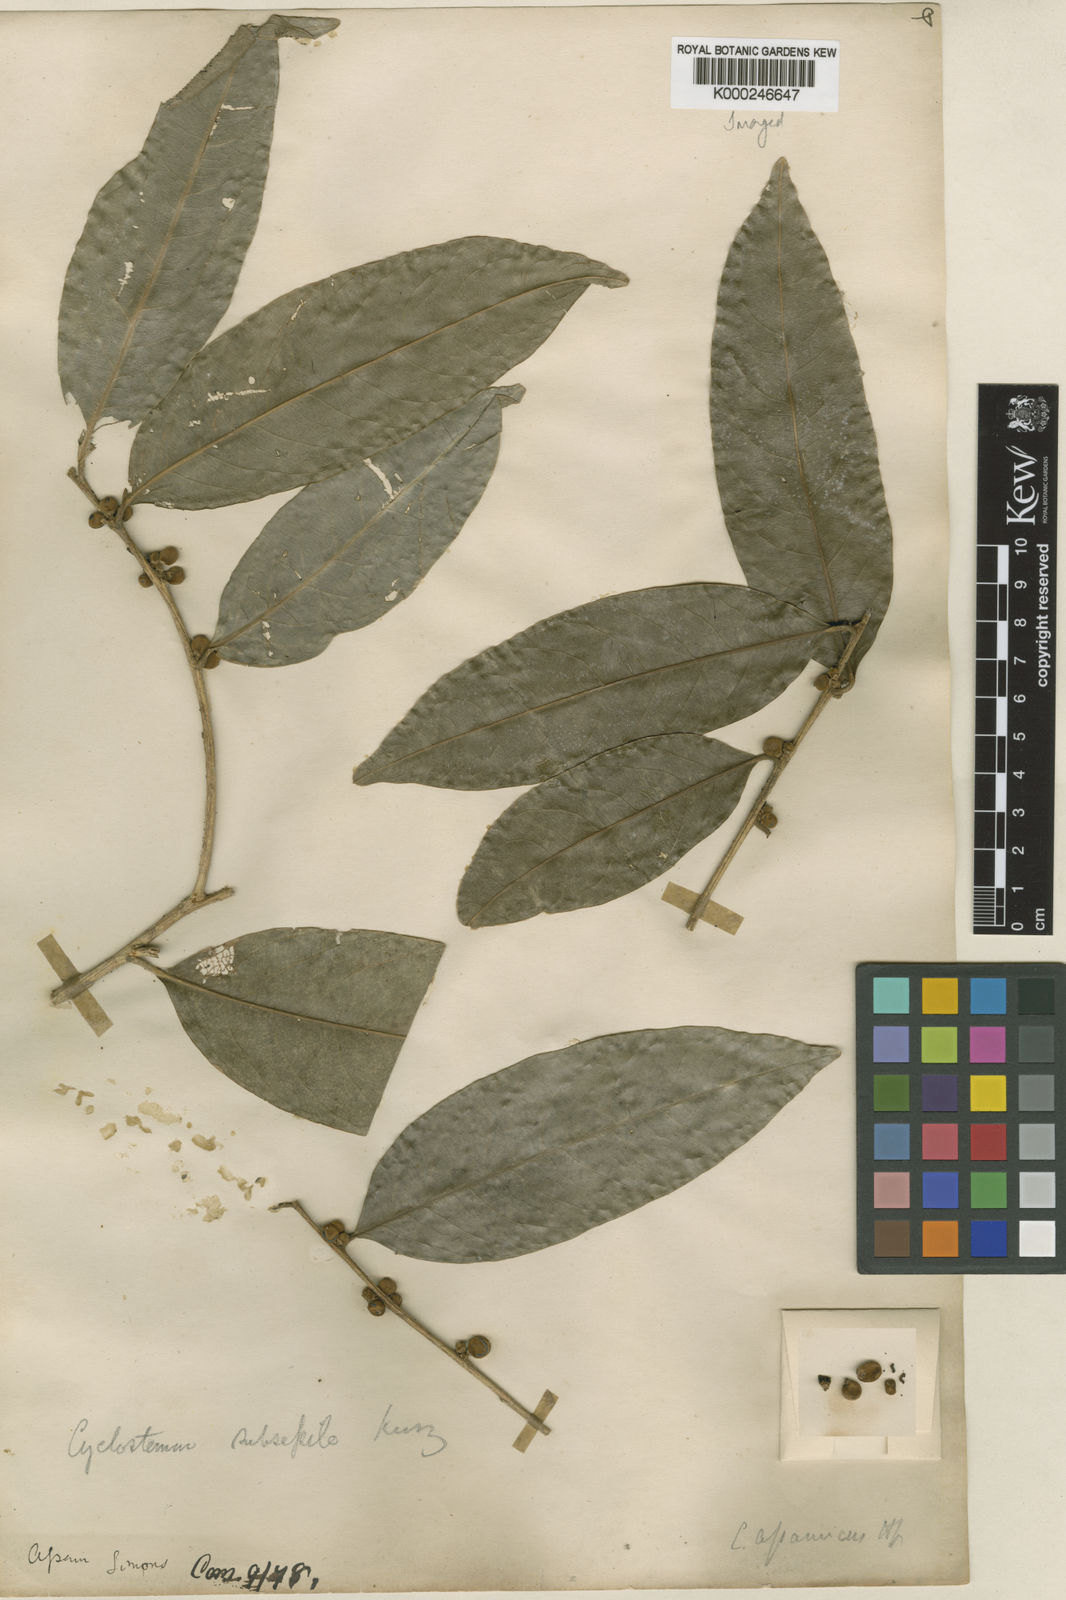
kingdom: Plantae
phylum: Tracheophyta
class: Magnoliopsida
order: Malpighiales
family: Putranjivaceae
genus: Drypetes
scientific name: Drypetes assamica
